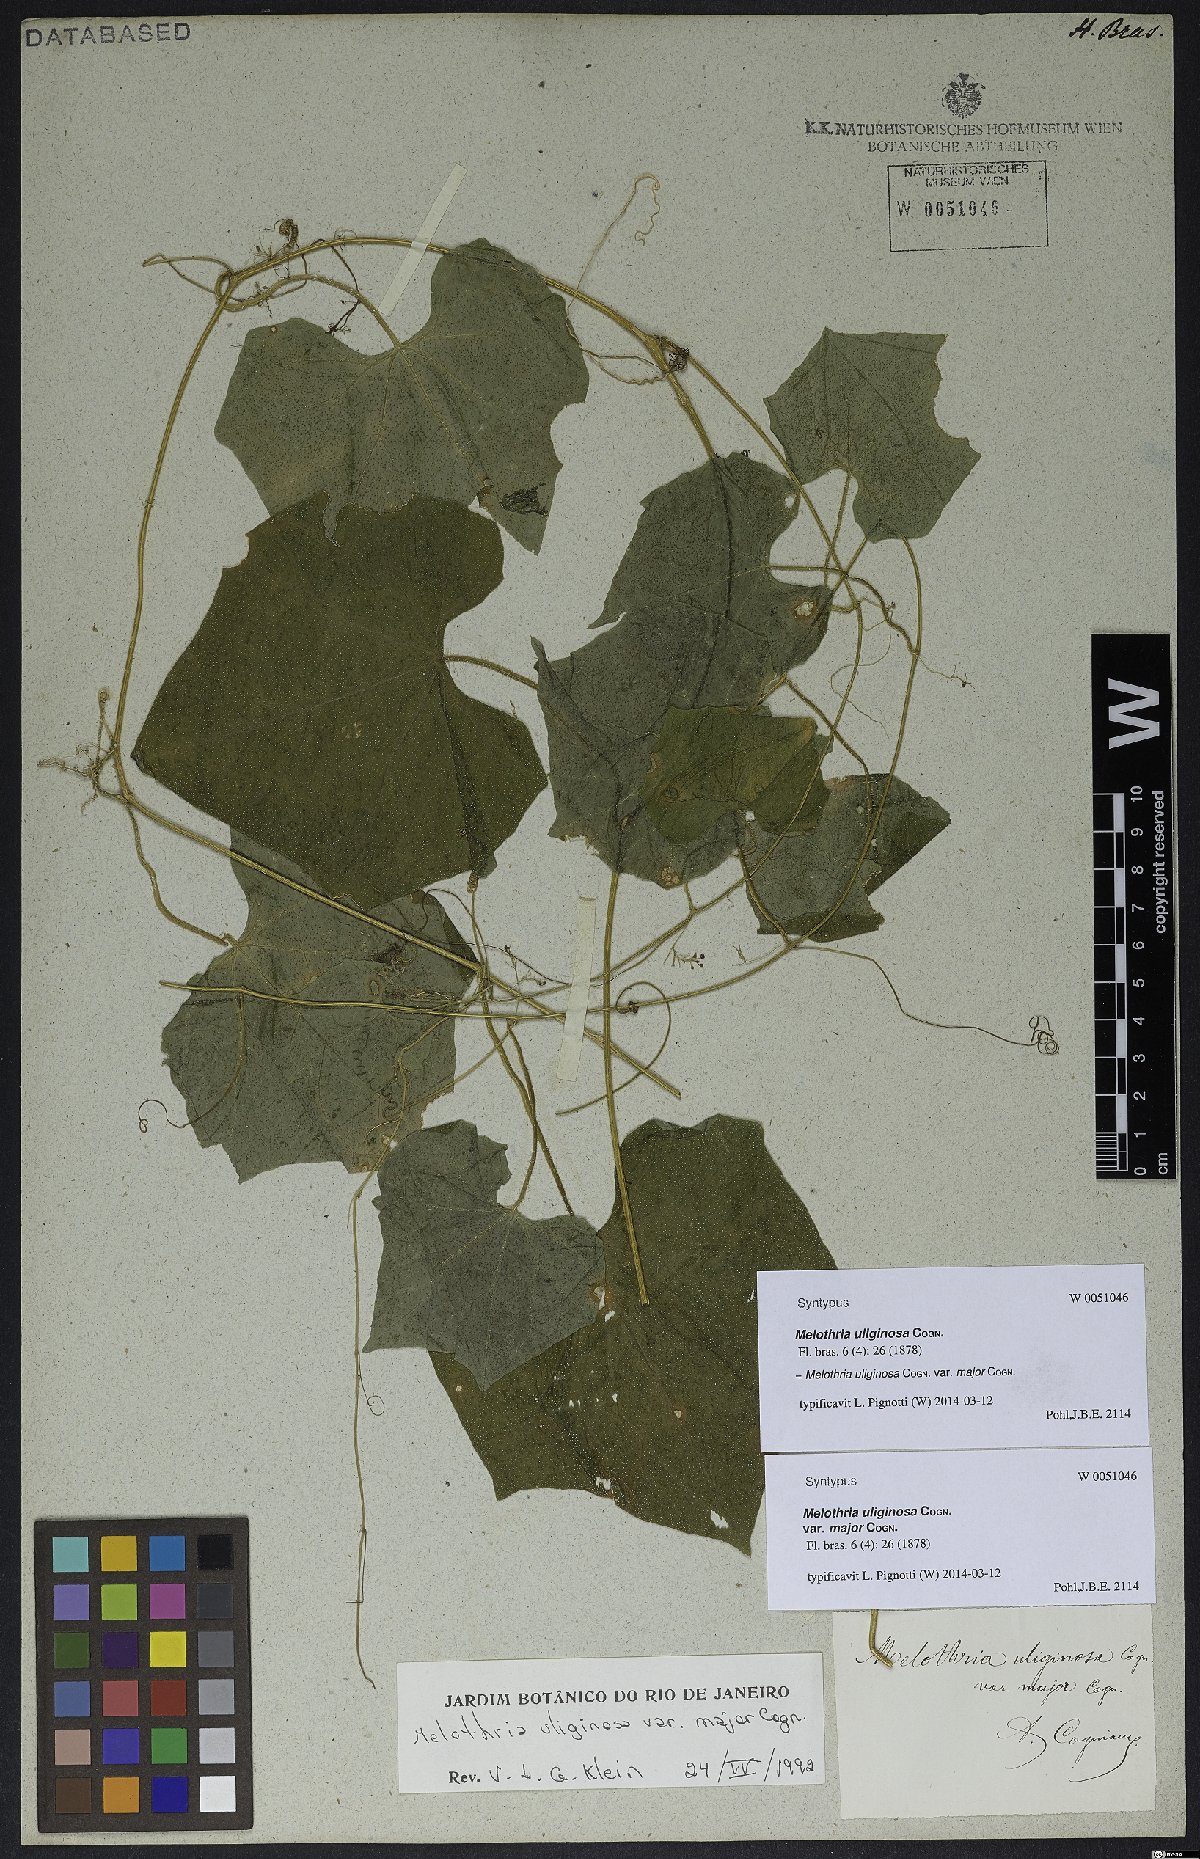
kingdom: Plantae
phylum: Tracheophyta
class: Magnoliopsida
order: Cucurbitales
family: Cucurbitaceae
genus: Melothria
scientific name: Melothria uliginosa
